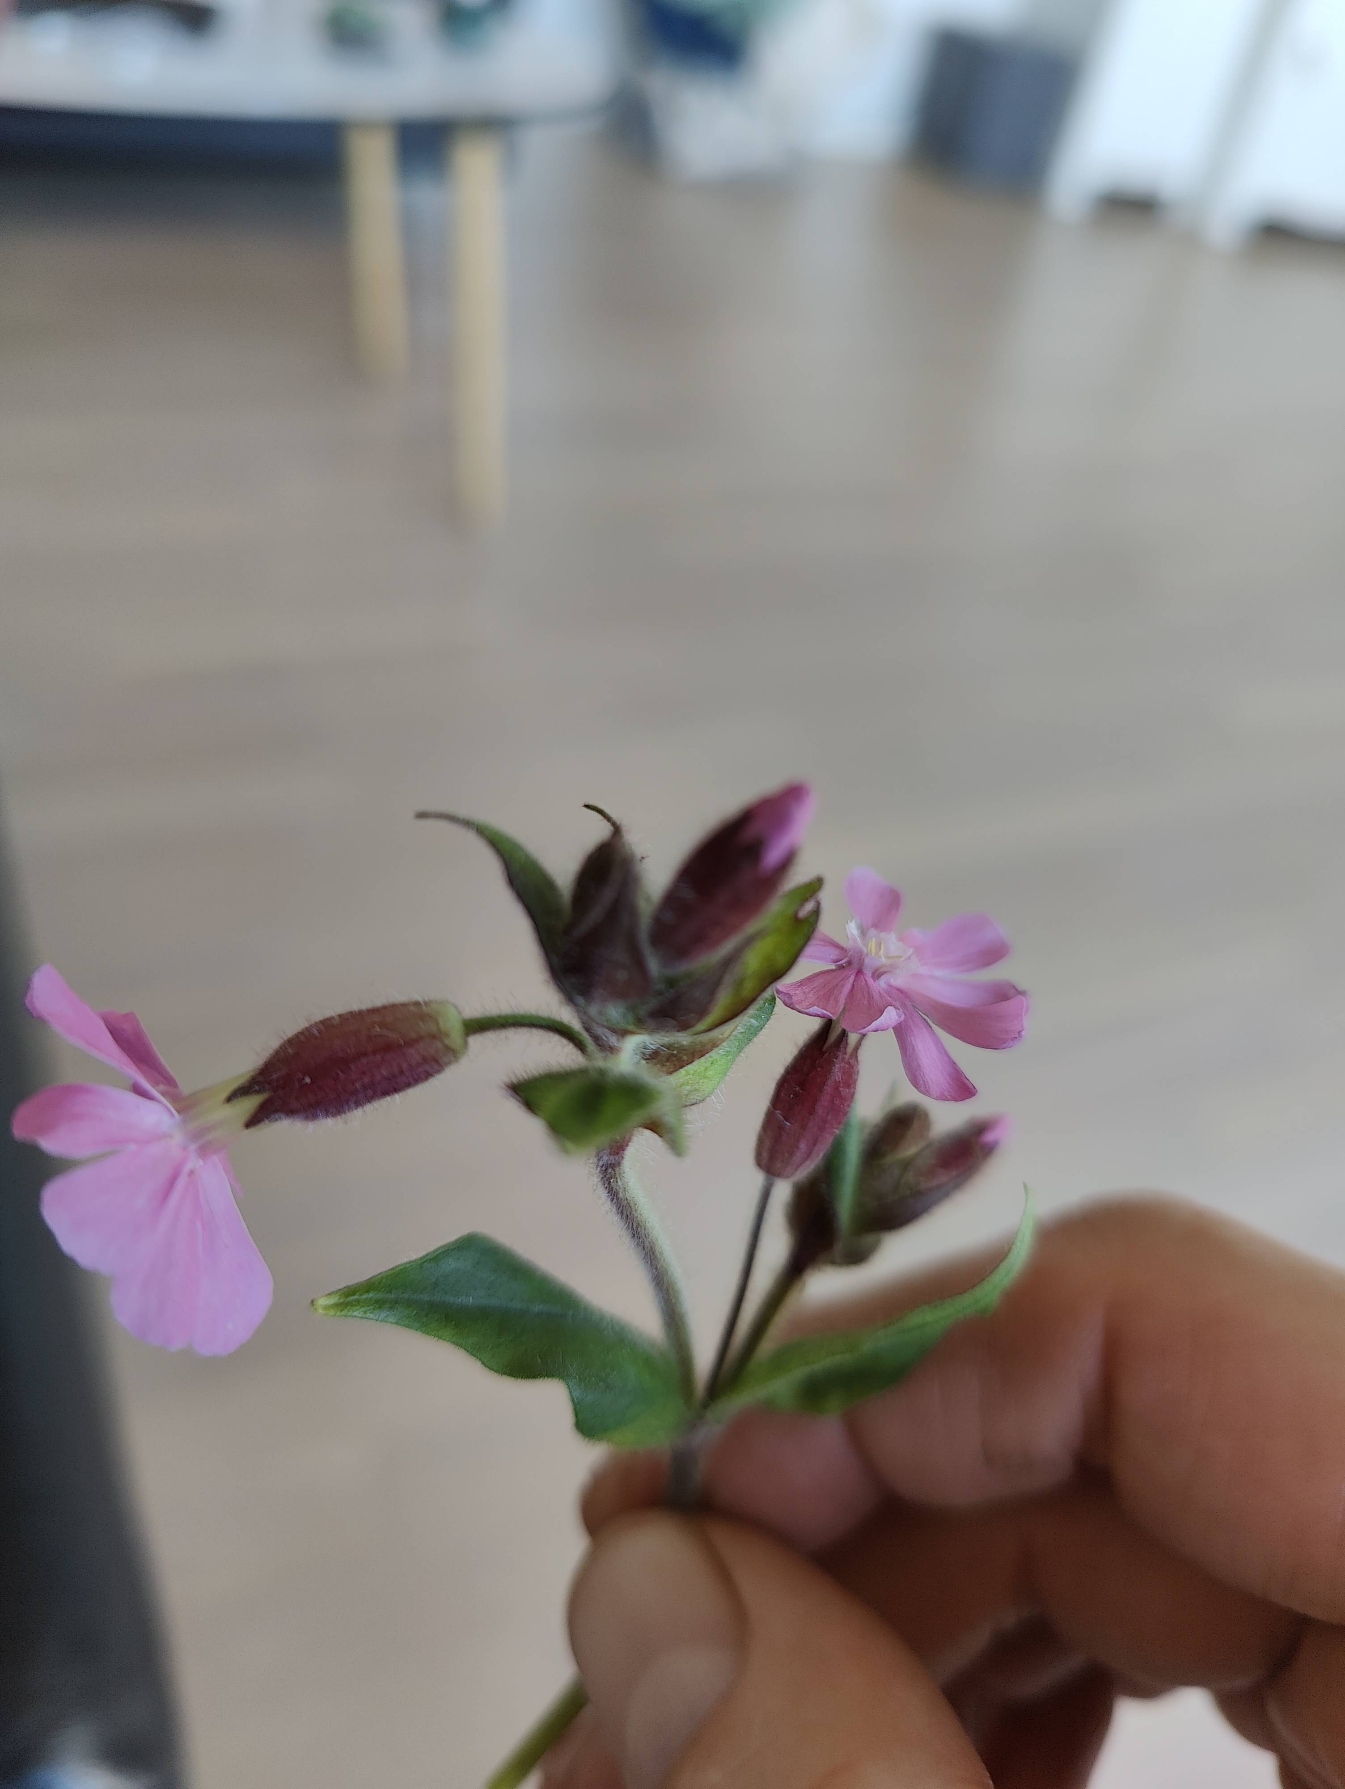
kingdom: Plantae
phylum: Tracheophyta
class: Magnoliopsida
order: Caryophyllales
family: Caryophyllaceae
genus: Silene
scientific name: Silene dioica
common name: Dagpragtstjerne
